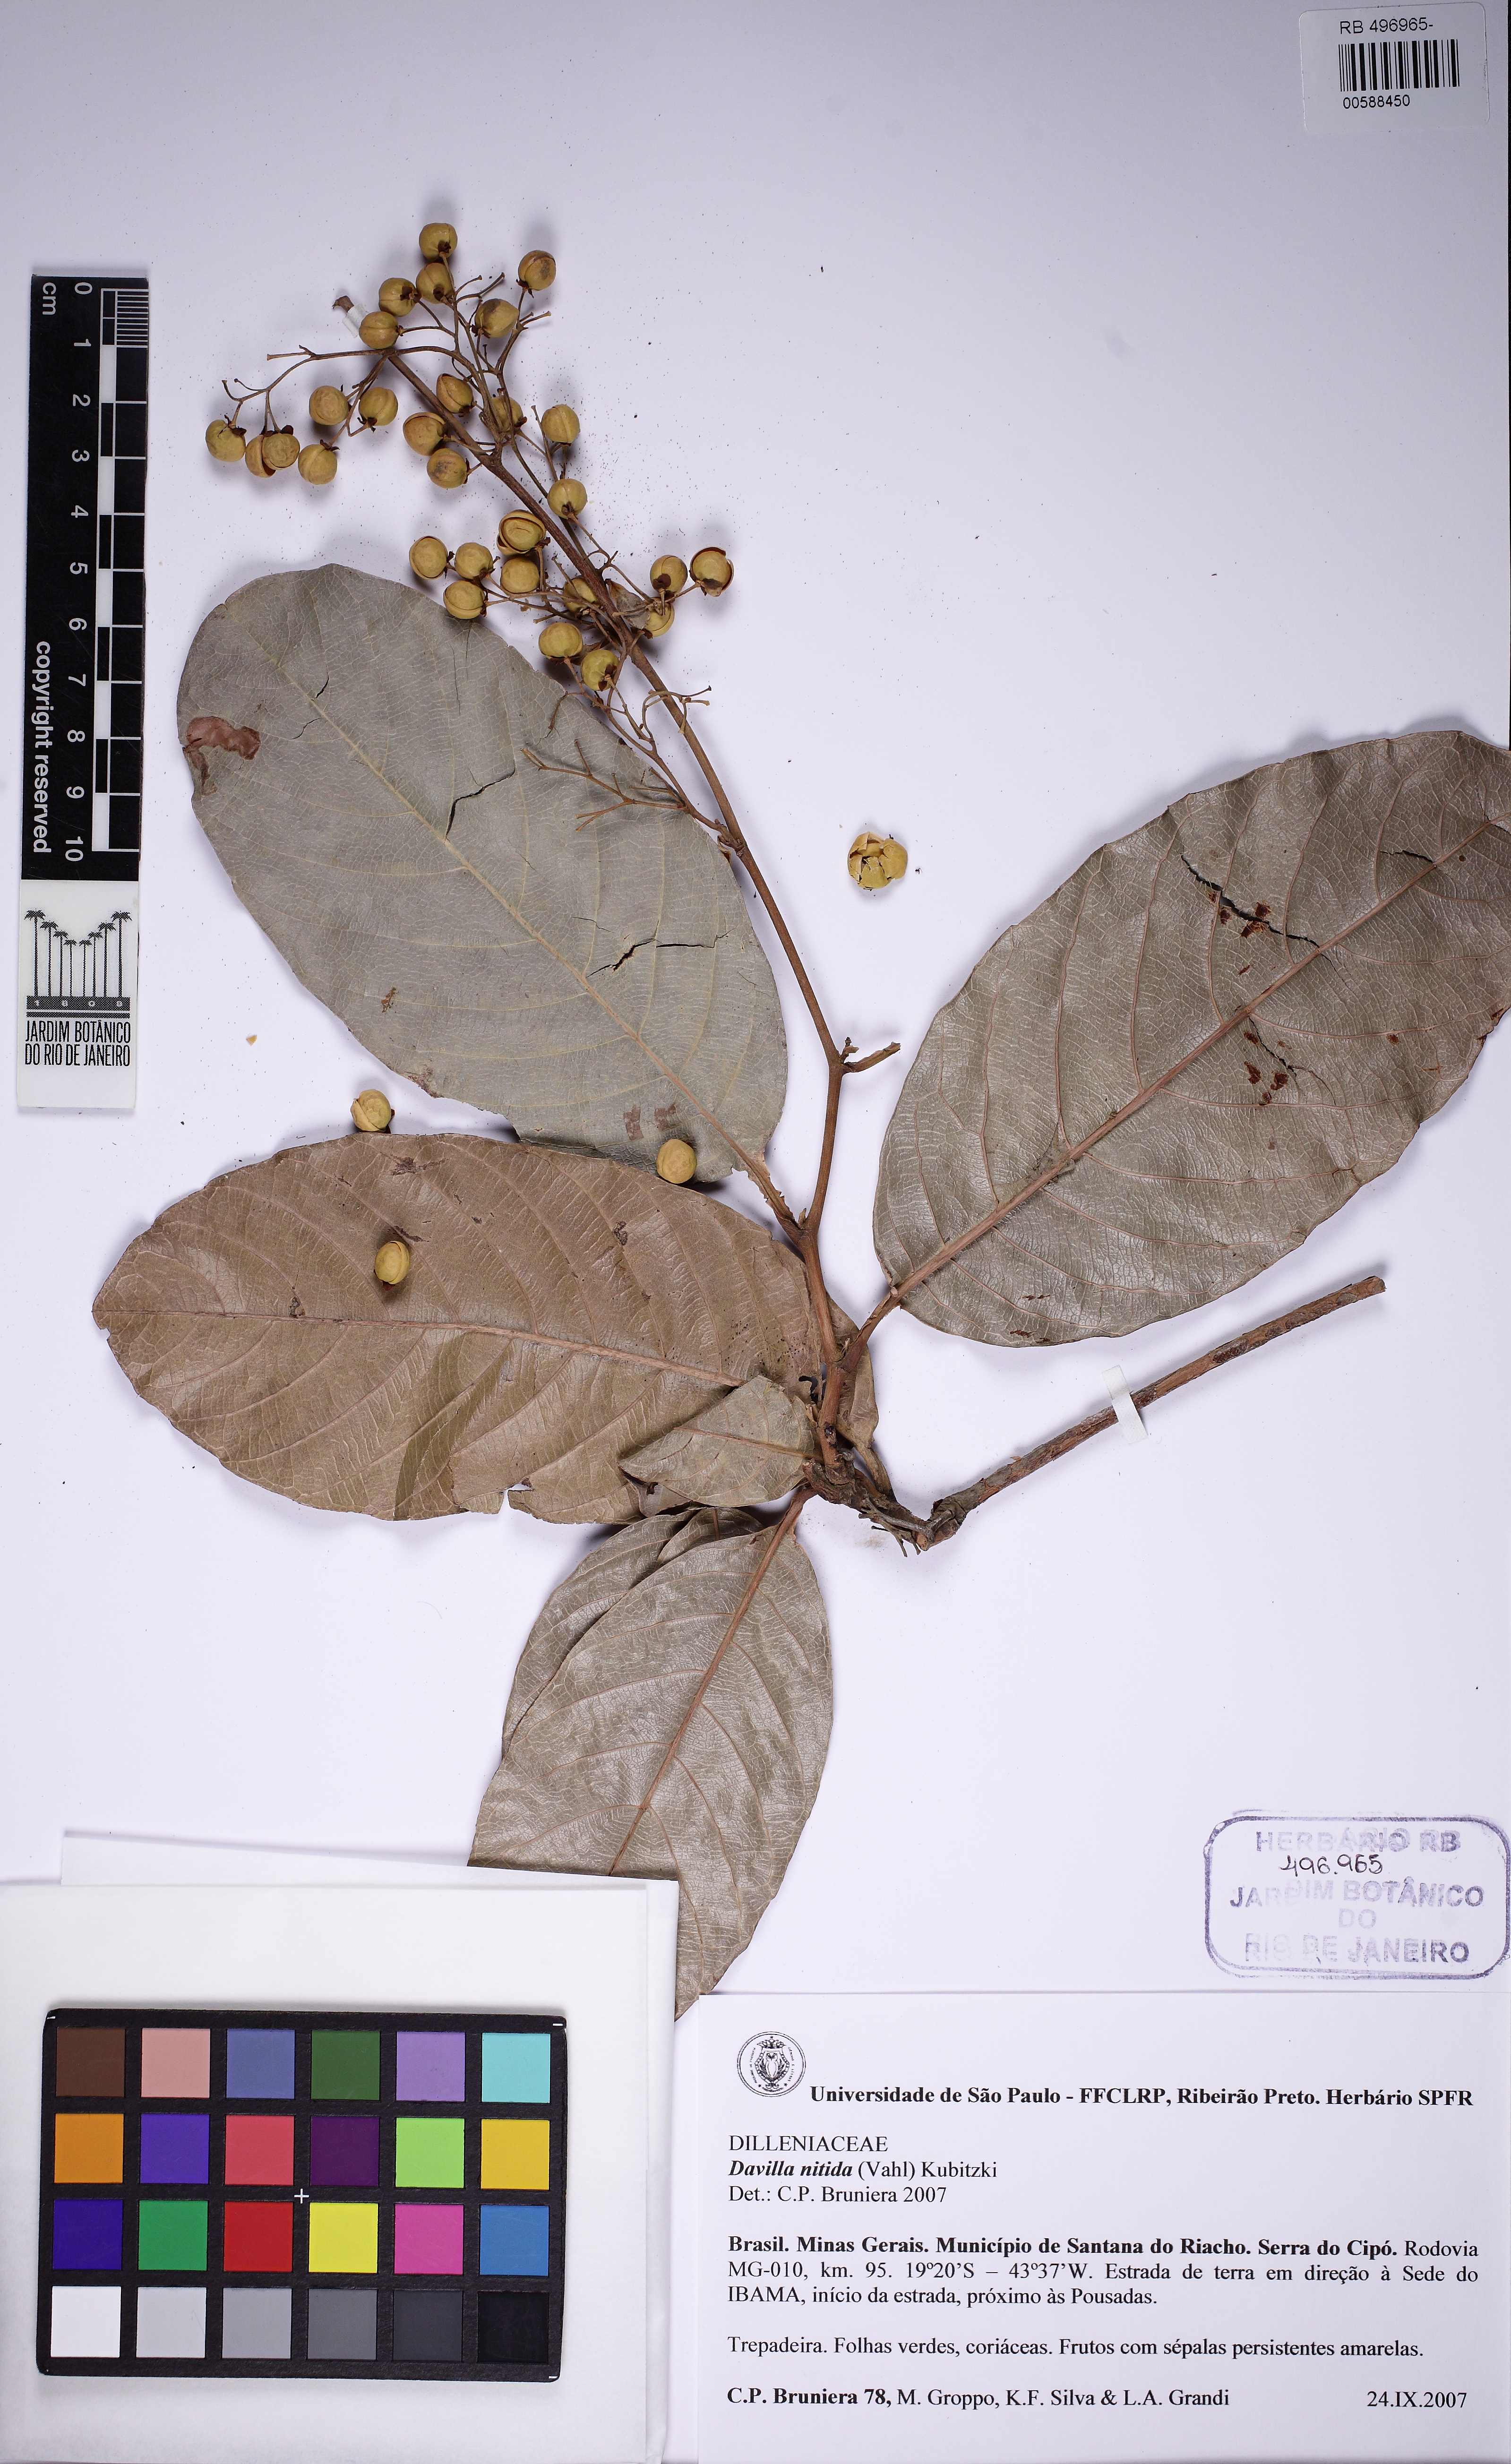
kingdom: Plantae
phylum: Tracheophyta
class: Magnoliopsida
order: Dilleniales
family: Dilleniaceae
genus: Davilla
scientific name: Davilla nitida
